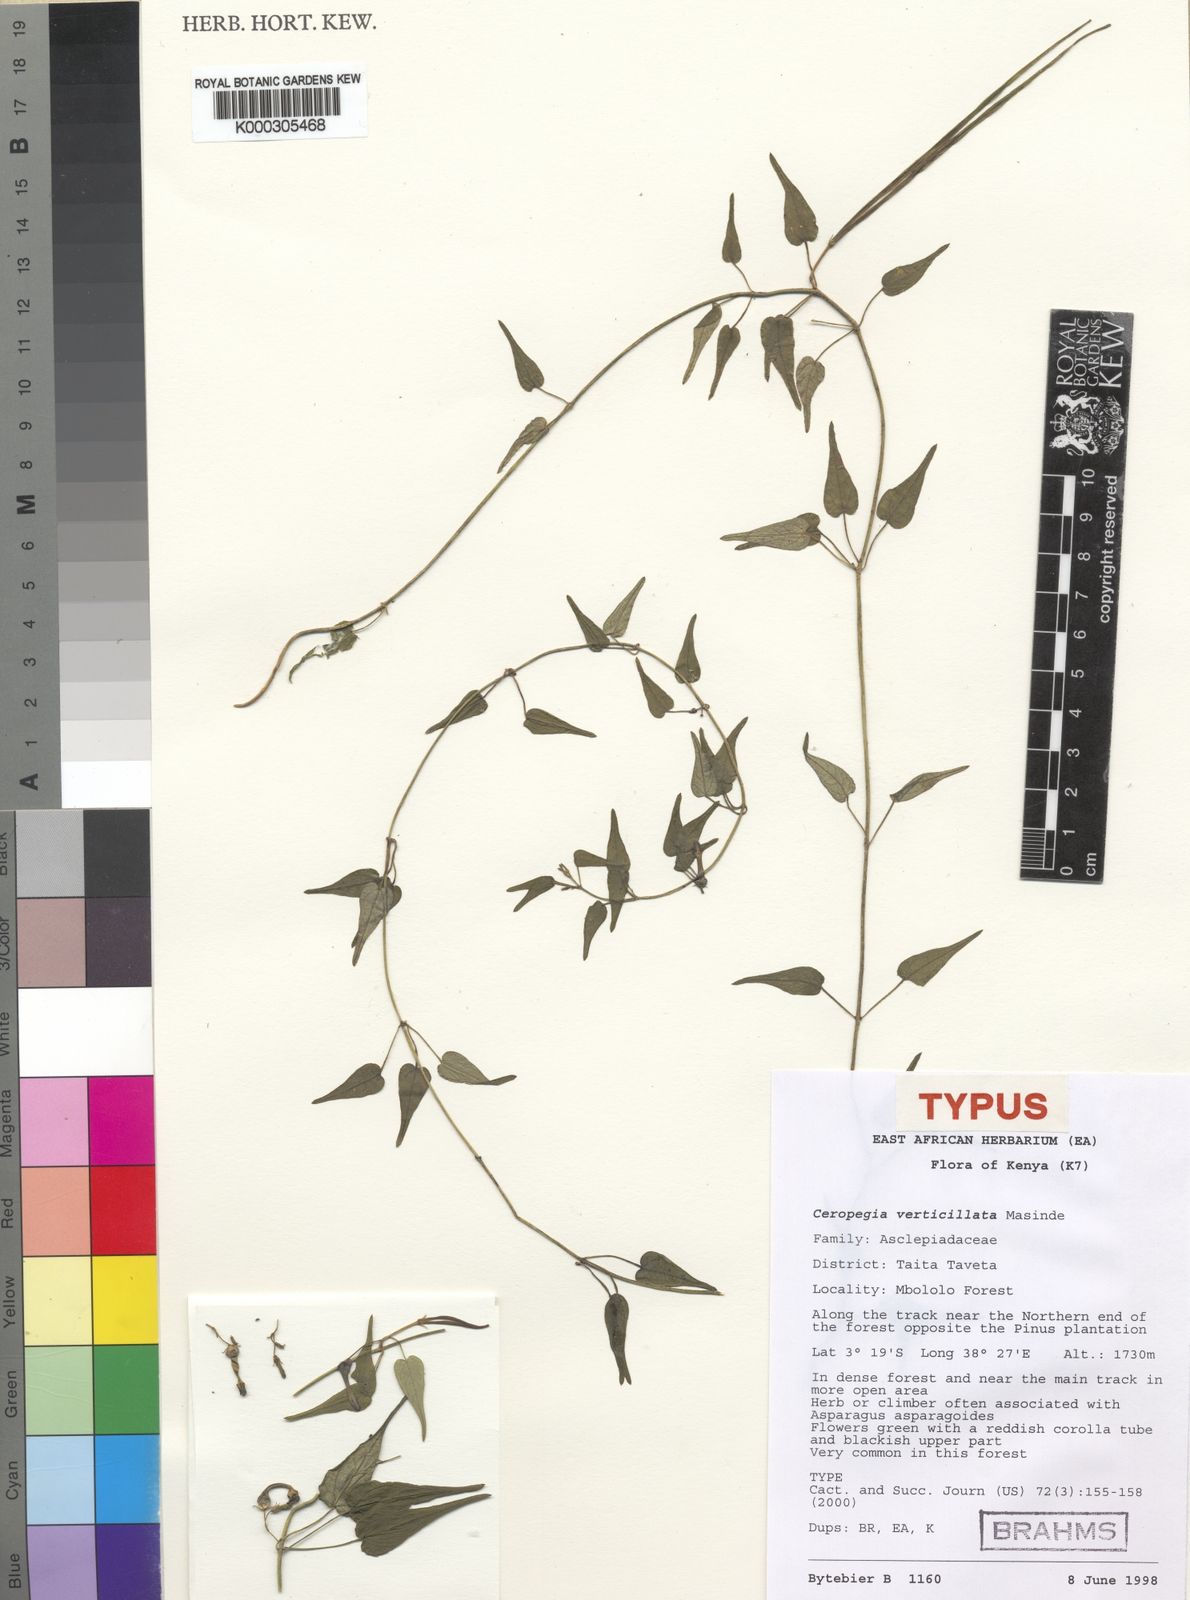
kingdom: Plantae
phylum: Tracheophyta
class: Magnoliopsida
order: Gentianales
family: Apocynaceae
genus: Ceropegia
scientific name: Ceropegia verticillata
